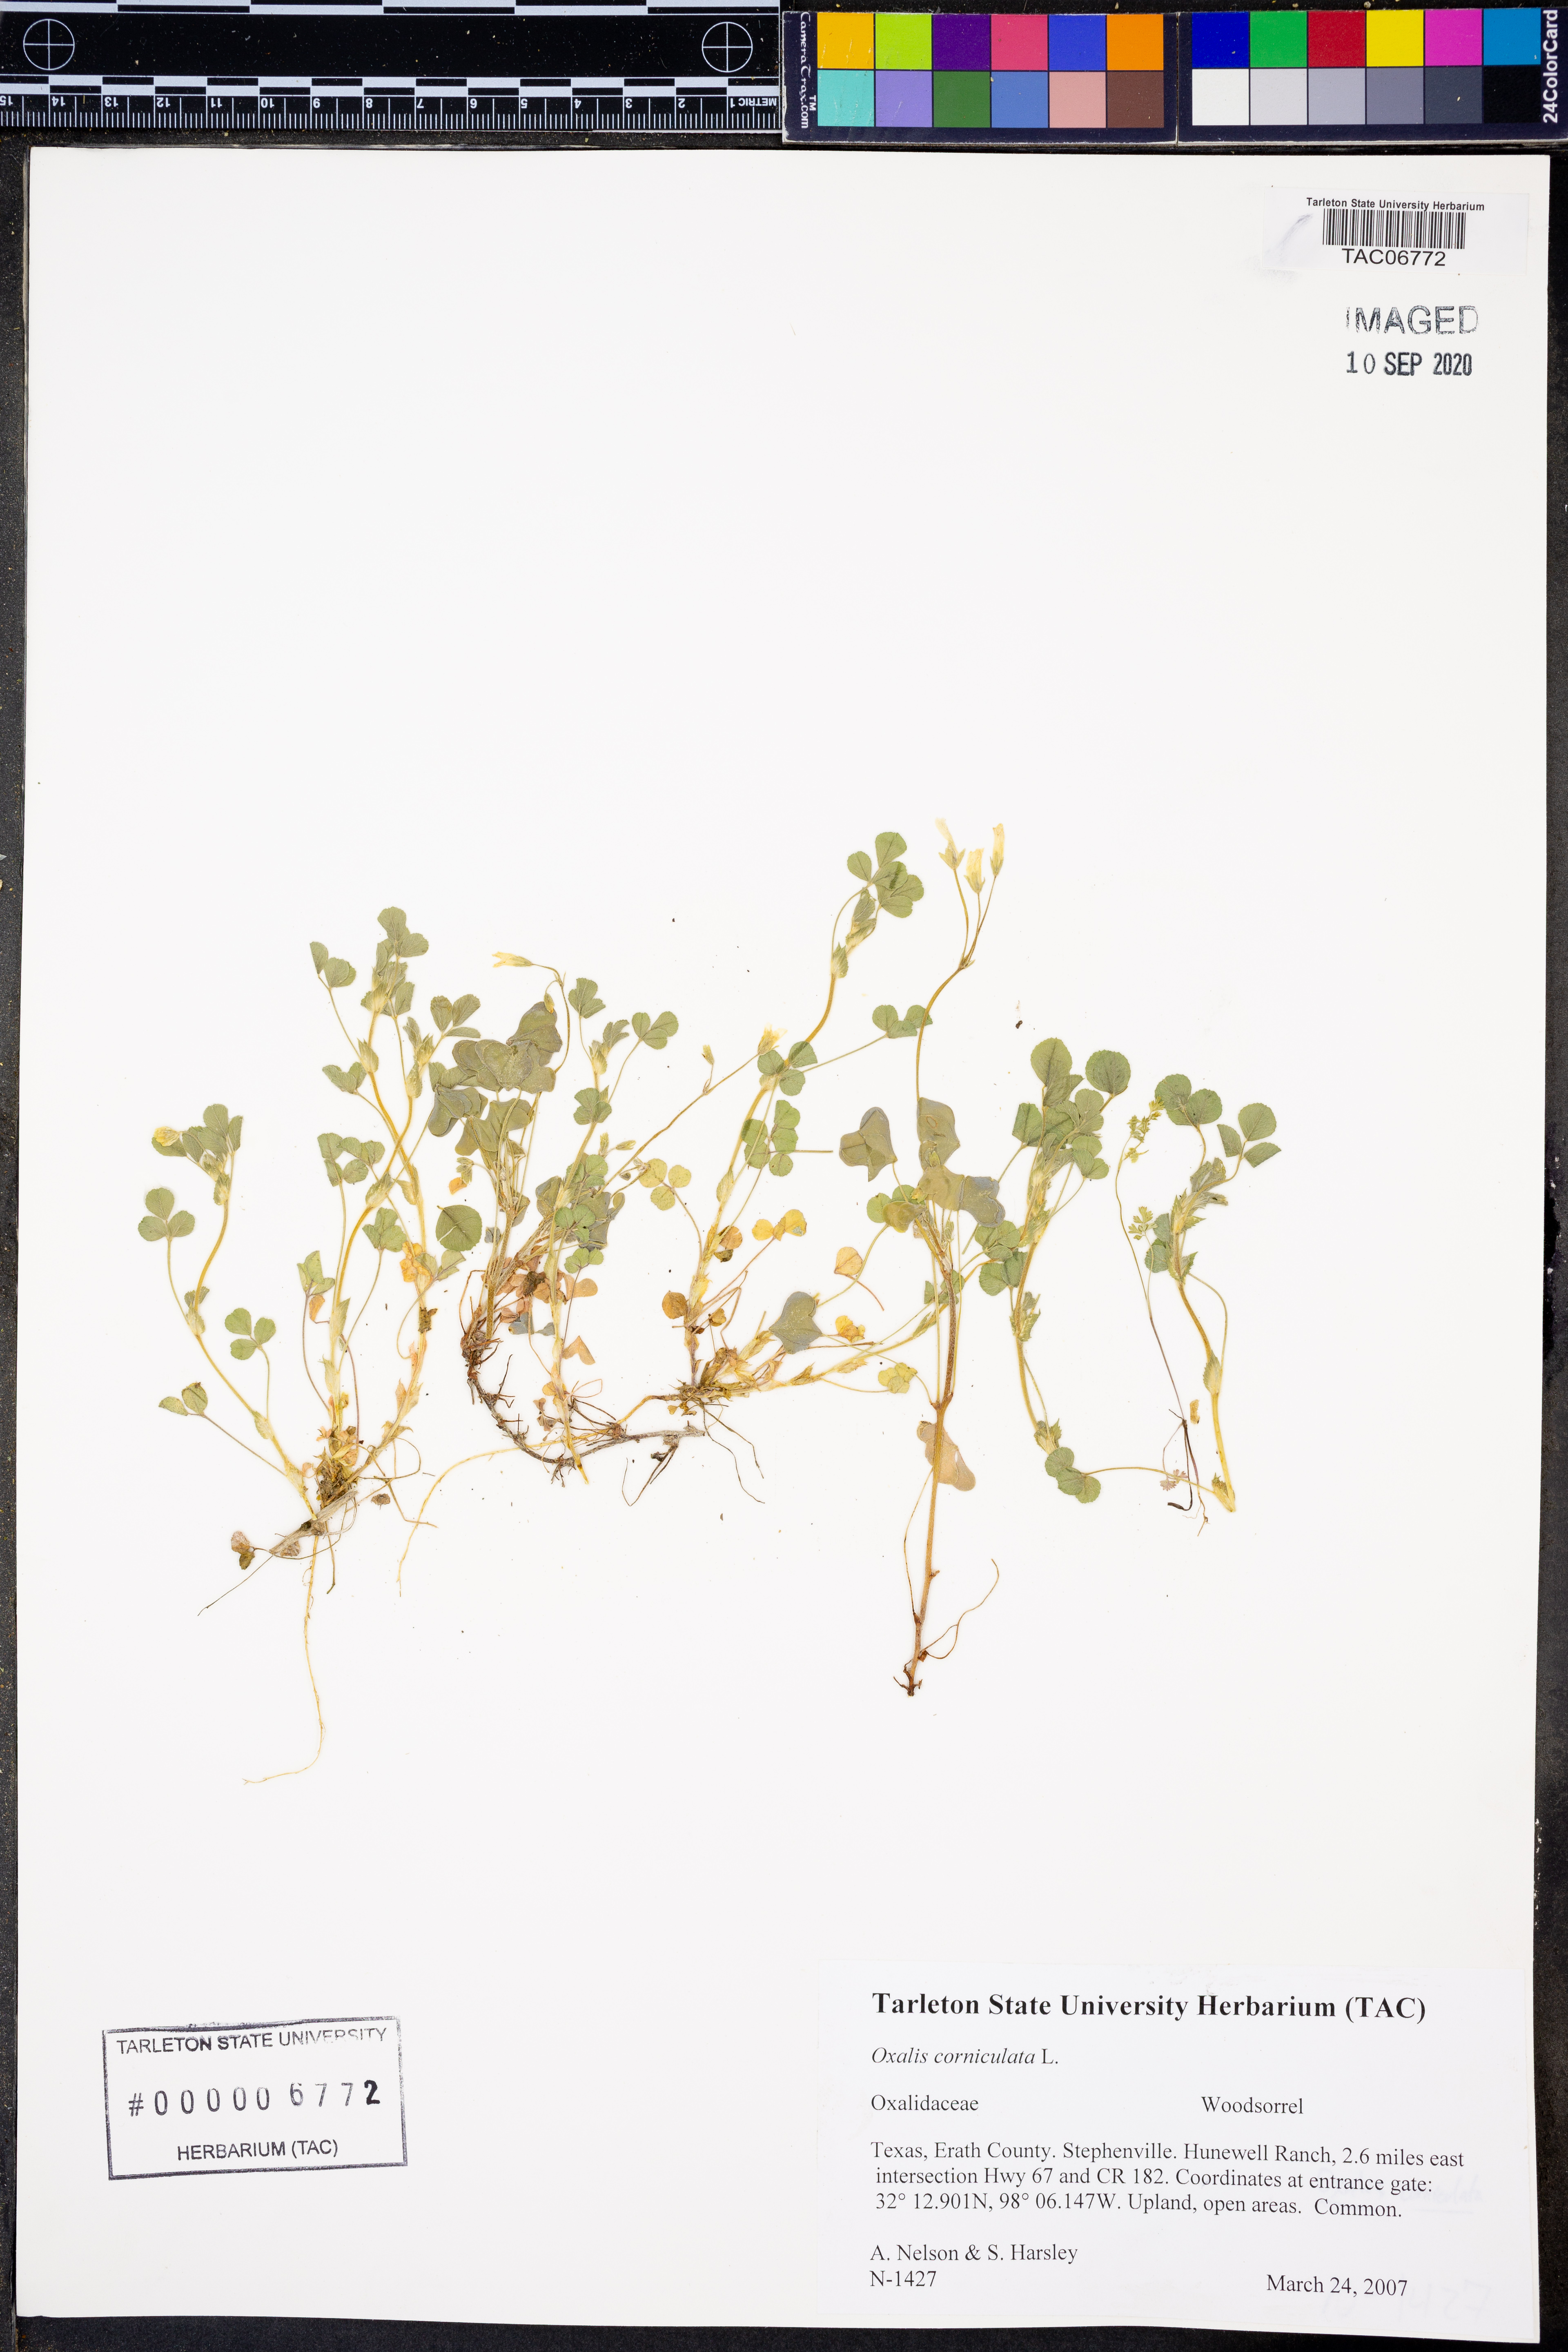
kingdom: Plantae
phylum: Tracheophyta
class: Magnoliopsida
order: Oxalidales
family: Oxalidaceae
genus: Oxalis
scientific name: Oxalis corniculata
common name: Procumbent yellow-sorrel
